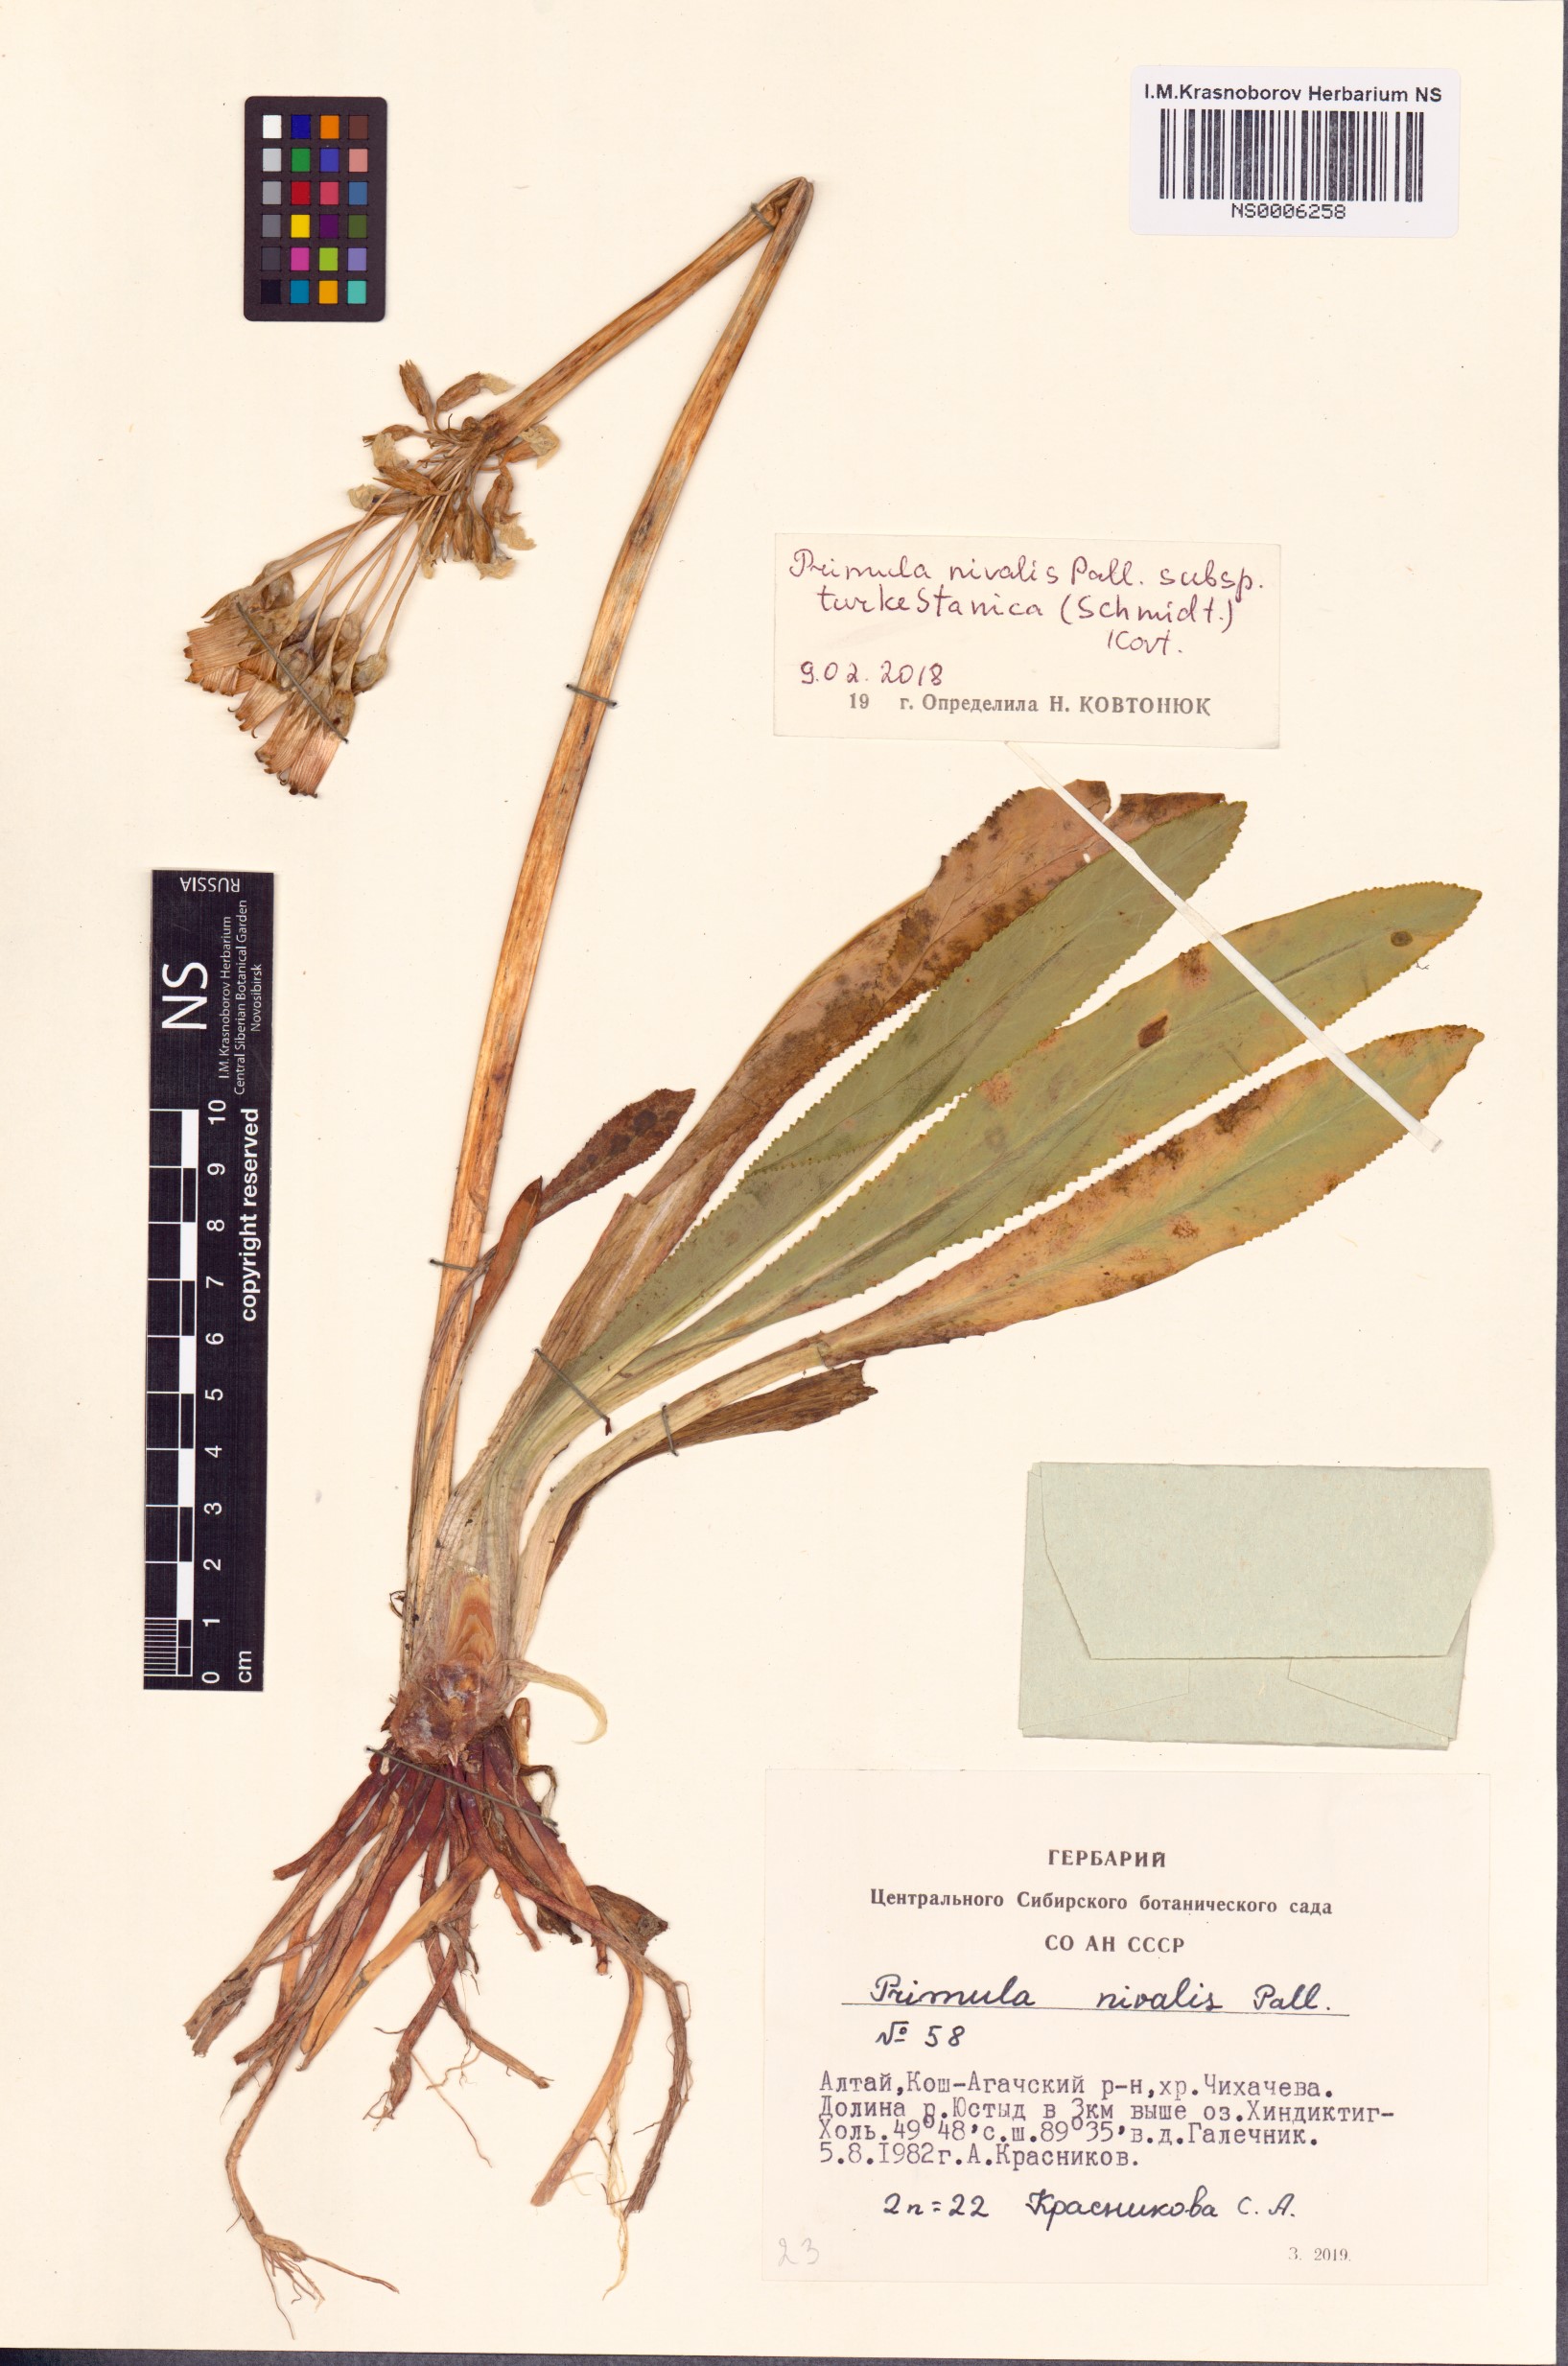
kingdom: Plantae
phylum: Tracheophyta
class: Magnoliopsida
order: Ericales
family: Primulaceae
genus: Primula
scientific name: Primula nivalis
